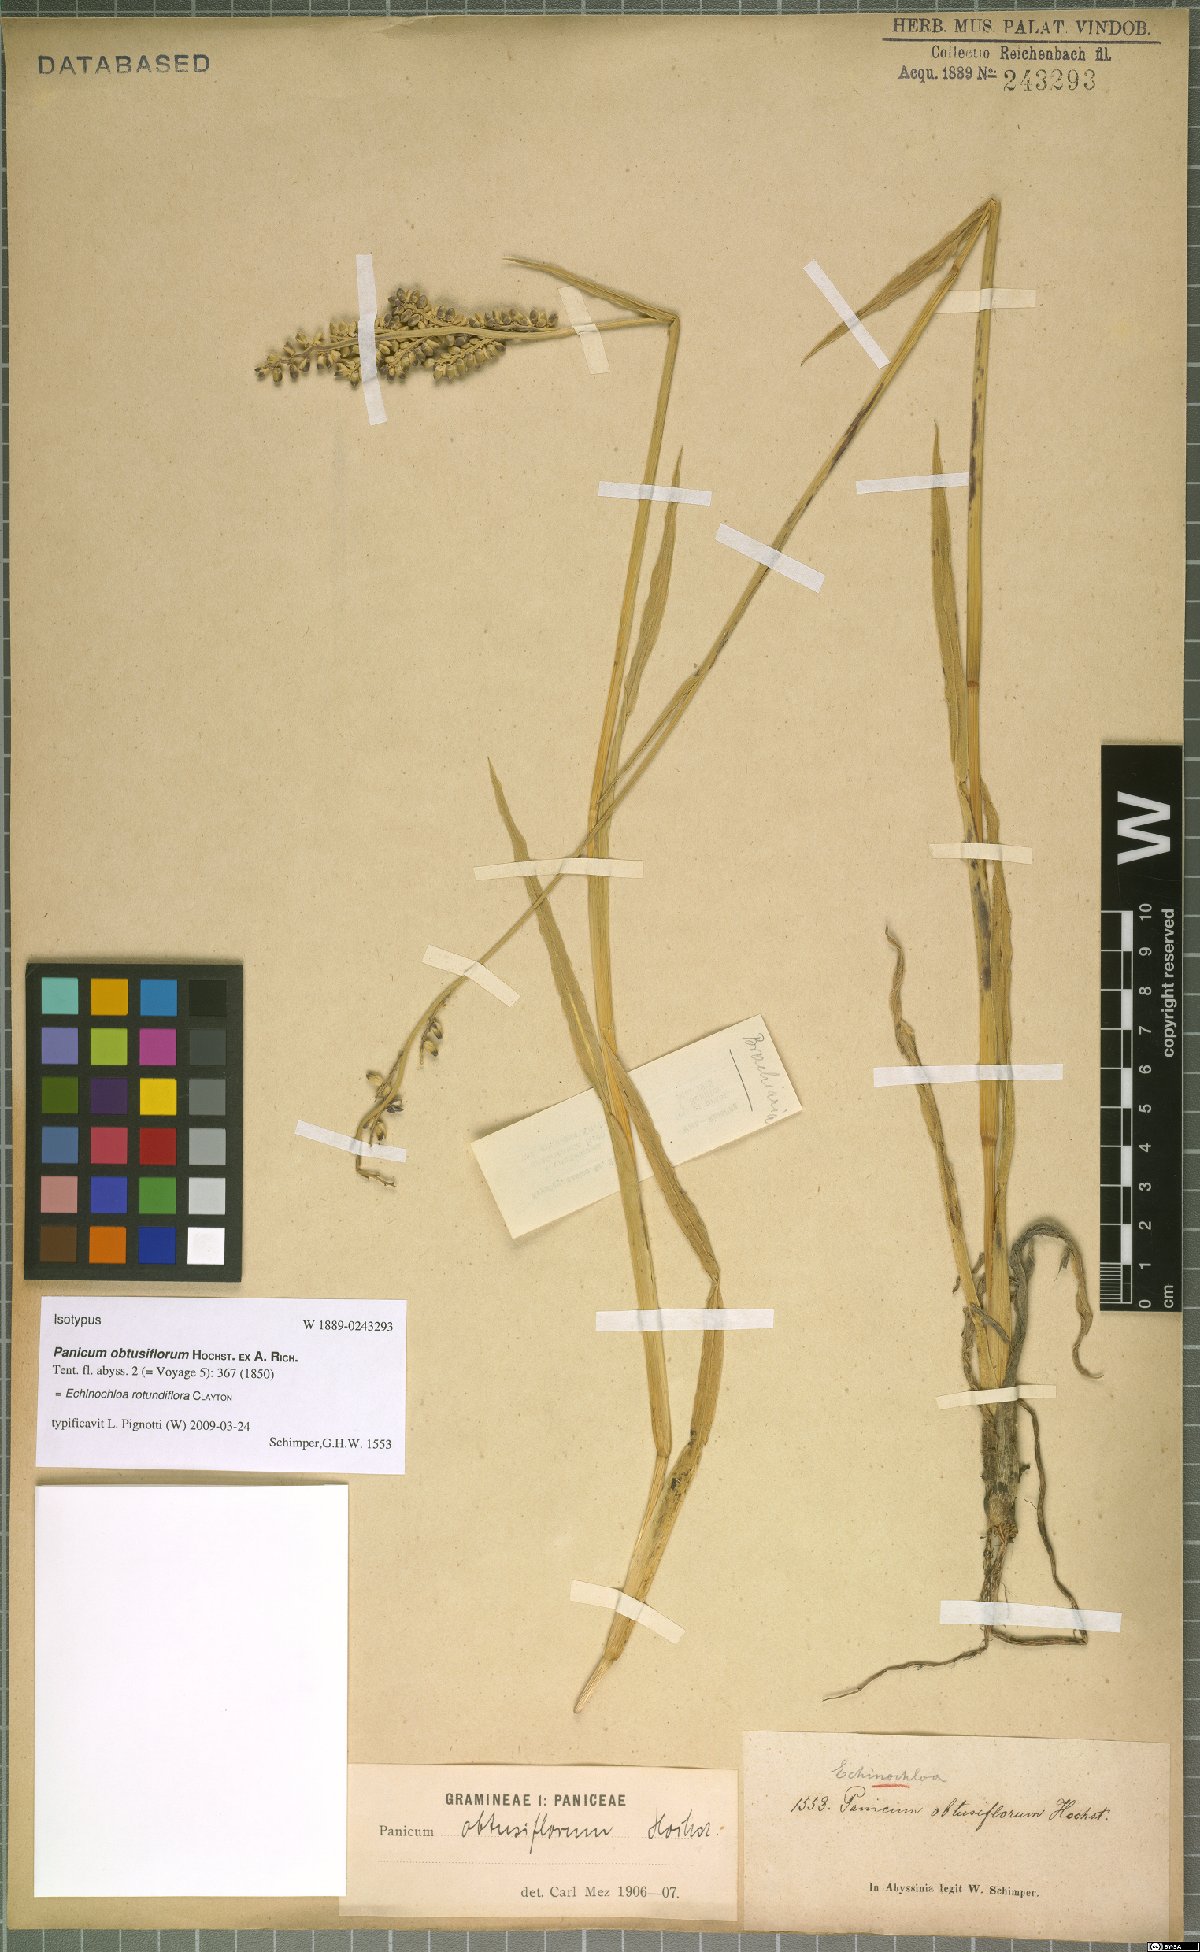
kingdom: Plantae
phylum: Tracheophyta
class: Liliopsida
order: Poales
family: Poaceae
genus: Echinochloa
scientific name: Echinochloa rotundiflora
